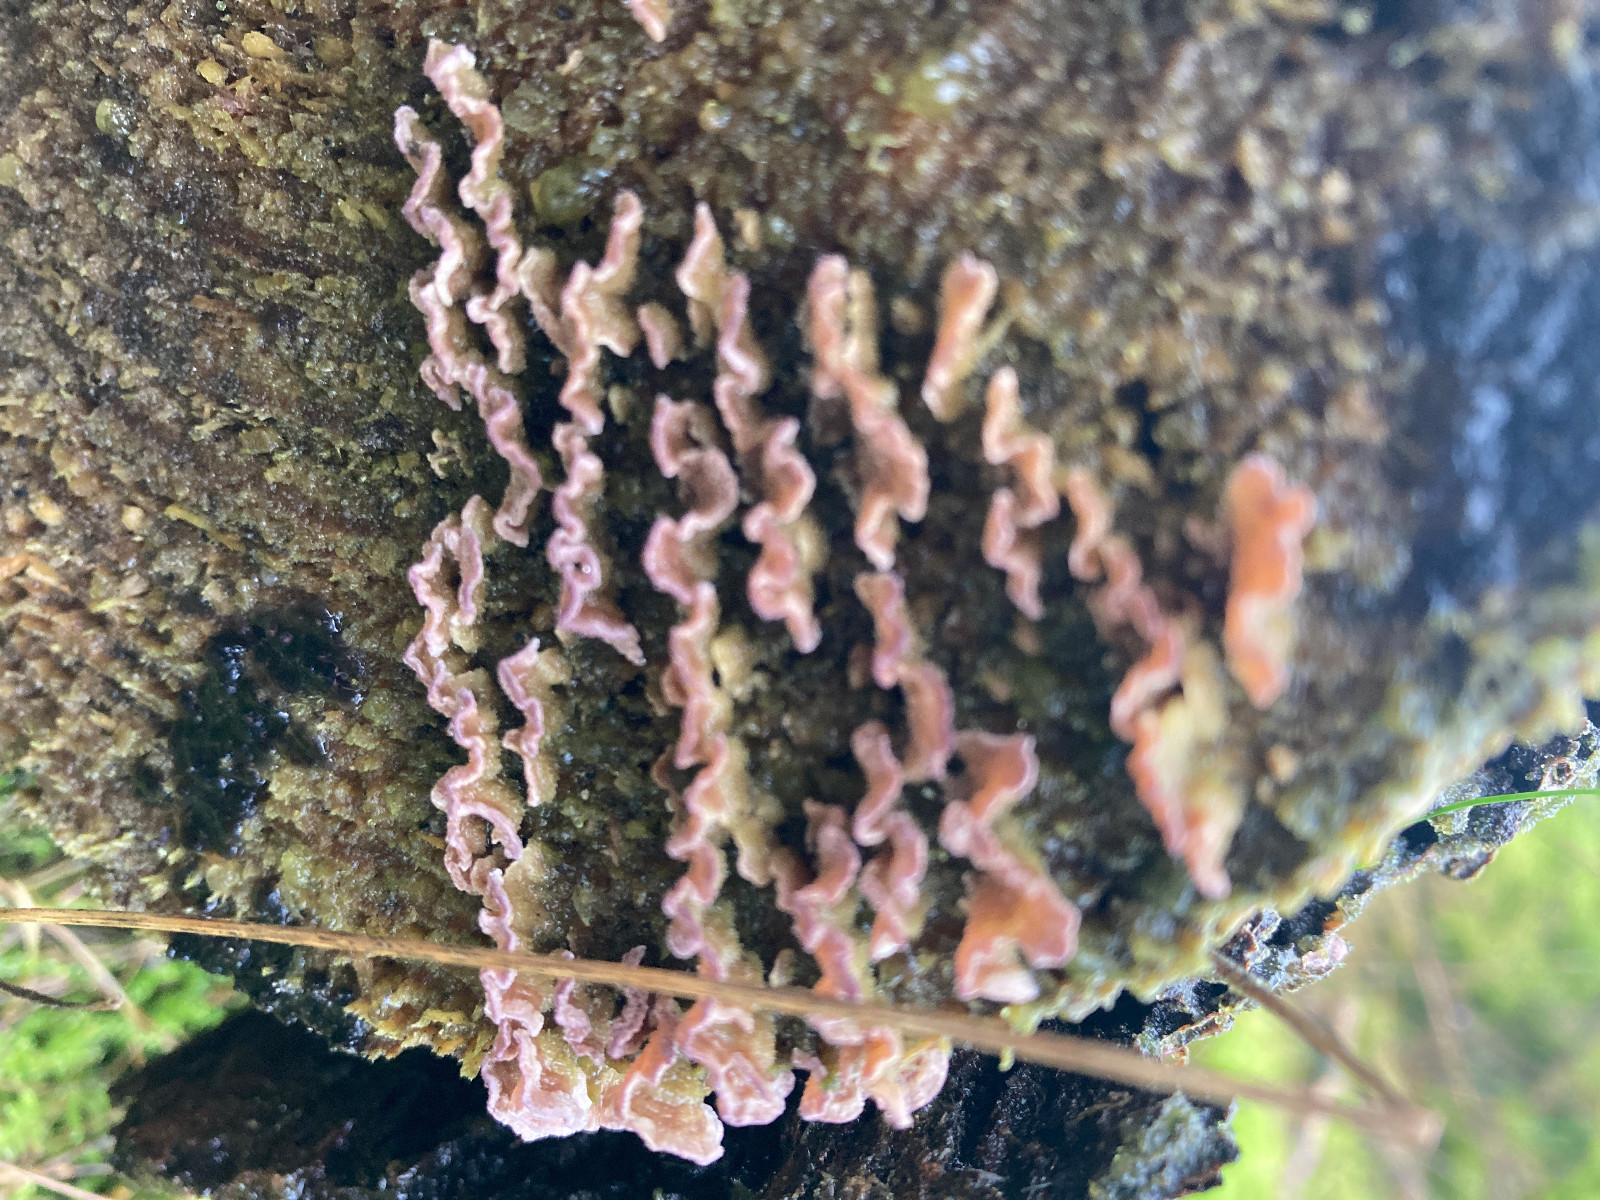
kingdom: Fungi
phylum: Basidiomycota
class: Agaricomycetes
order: Agaricales
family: Cyphellaceae
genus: Chondrostereum
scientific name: Chondrostereum purpureum
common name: purpurlædersvamp
